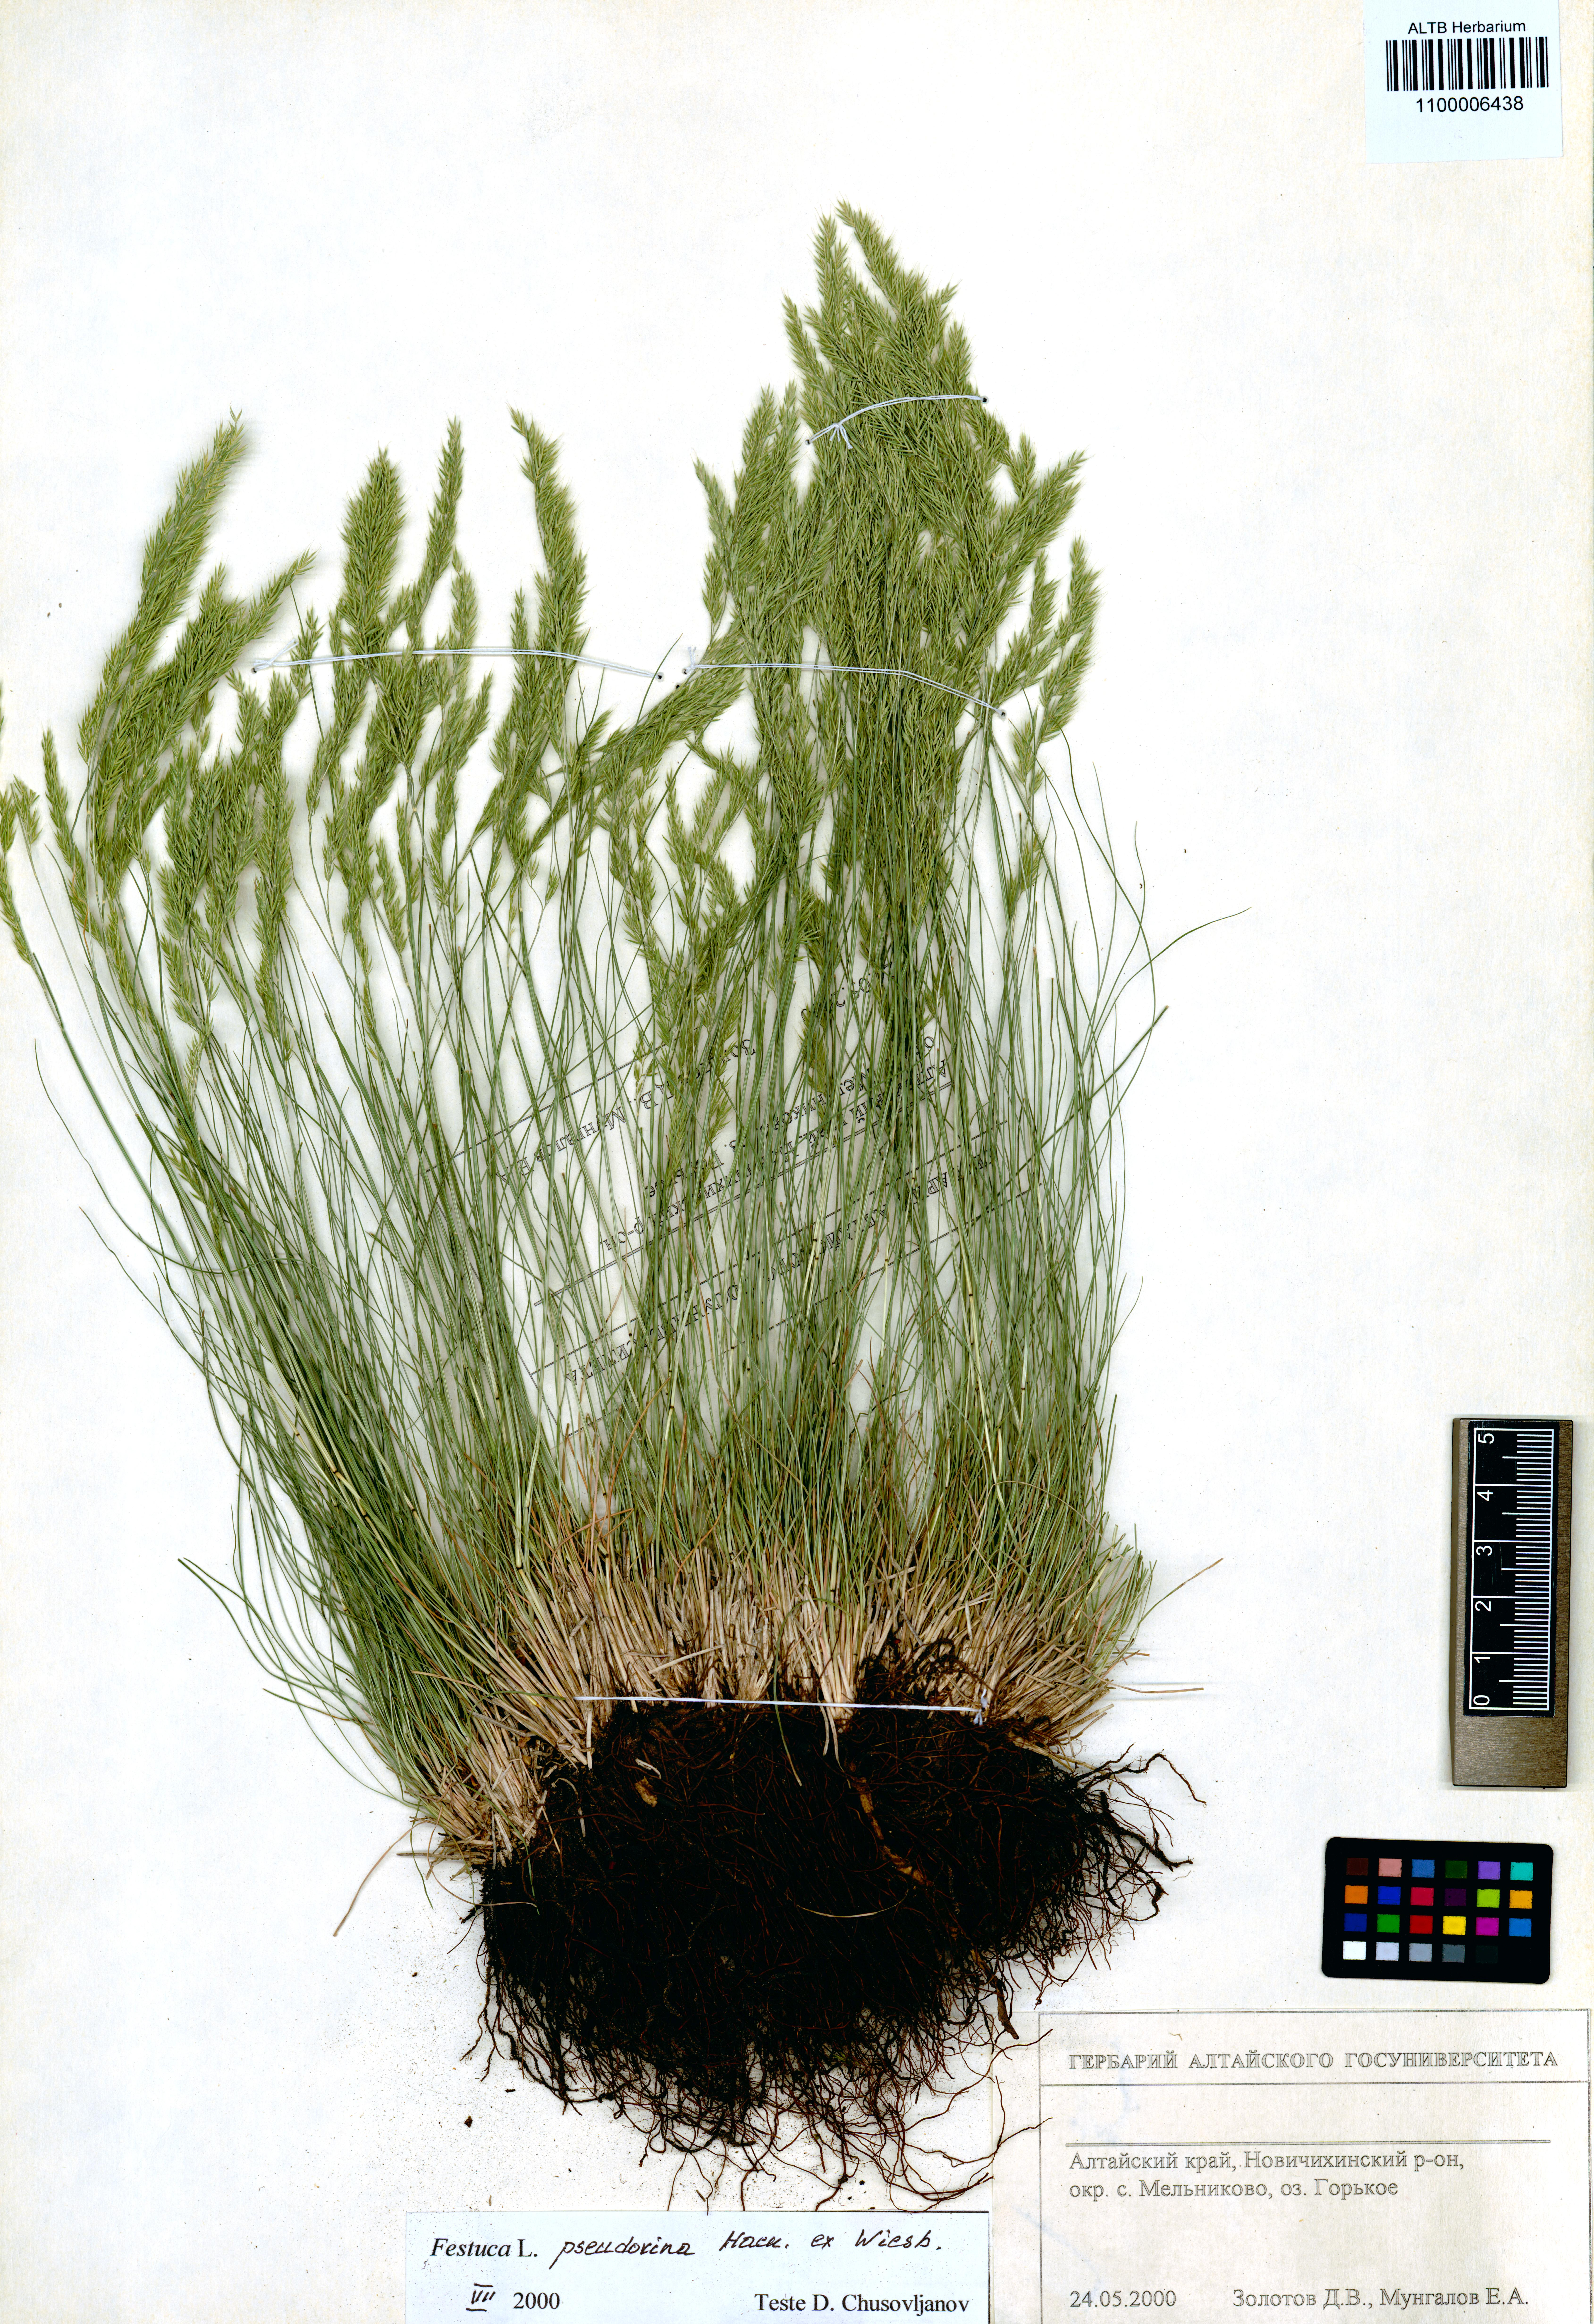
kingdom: Plantae
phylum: Tracheophyta
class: Liliopsida
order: Poales
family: Poaceae
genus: Festuca
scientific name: Festuca pulchra
